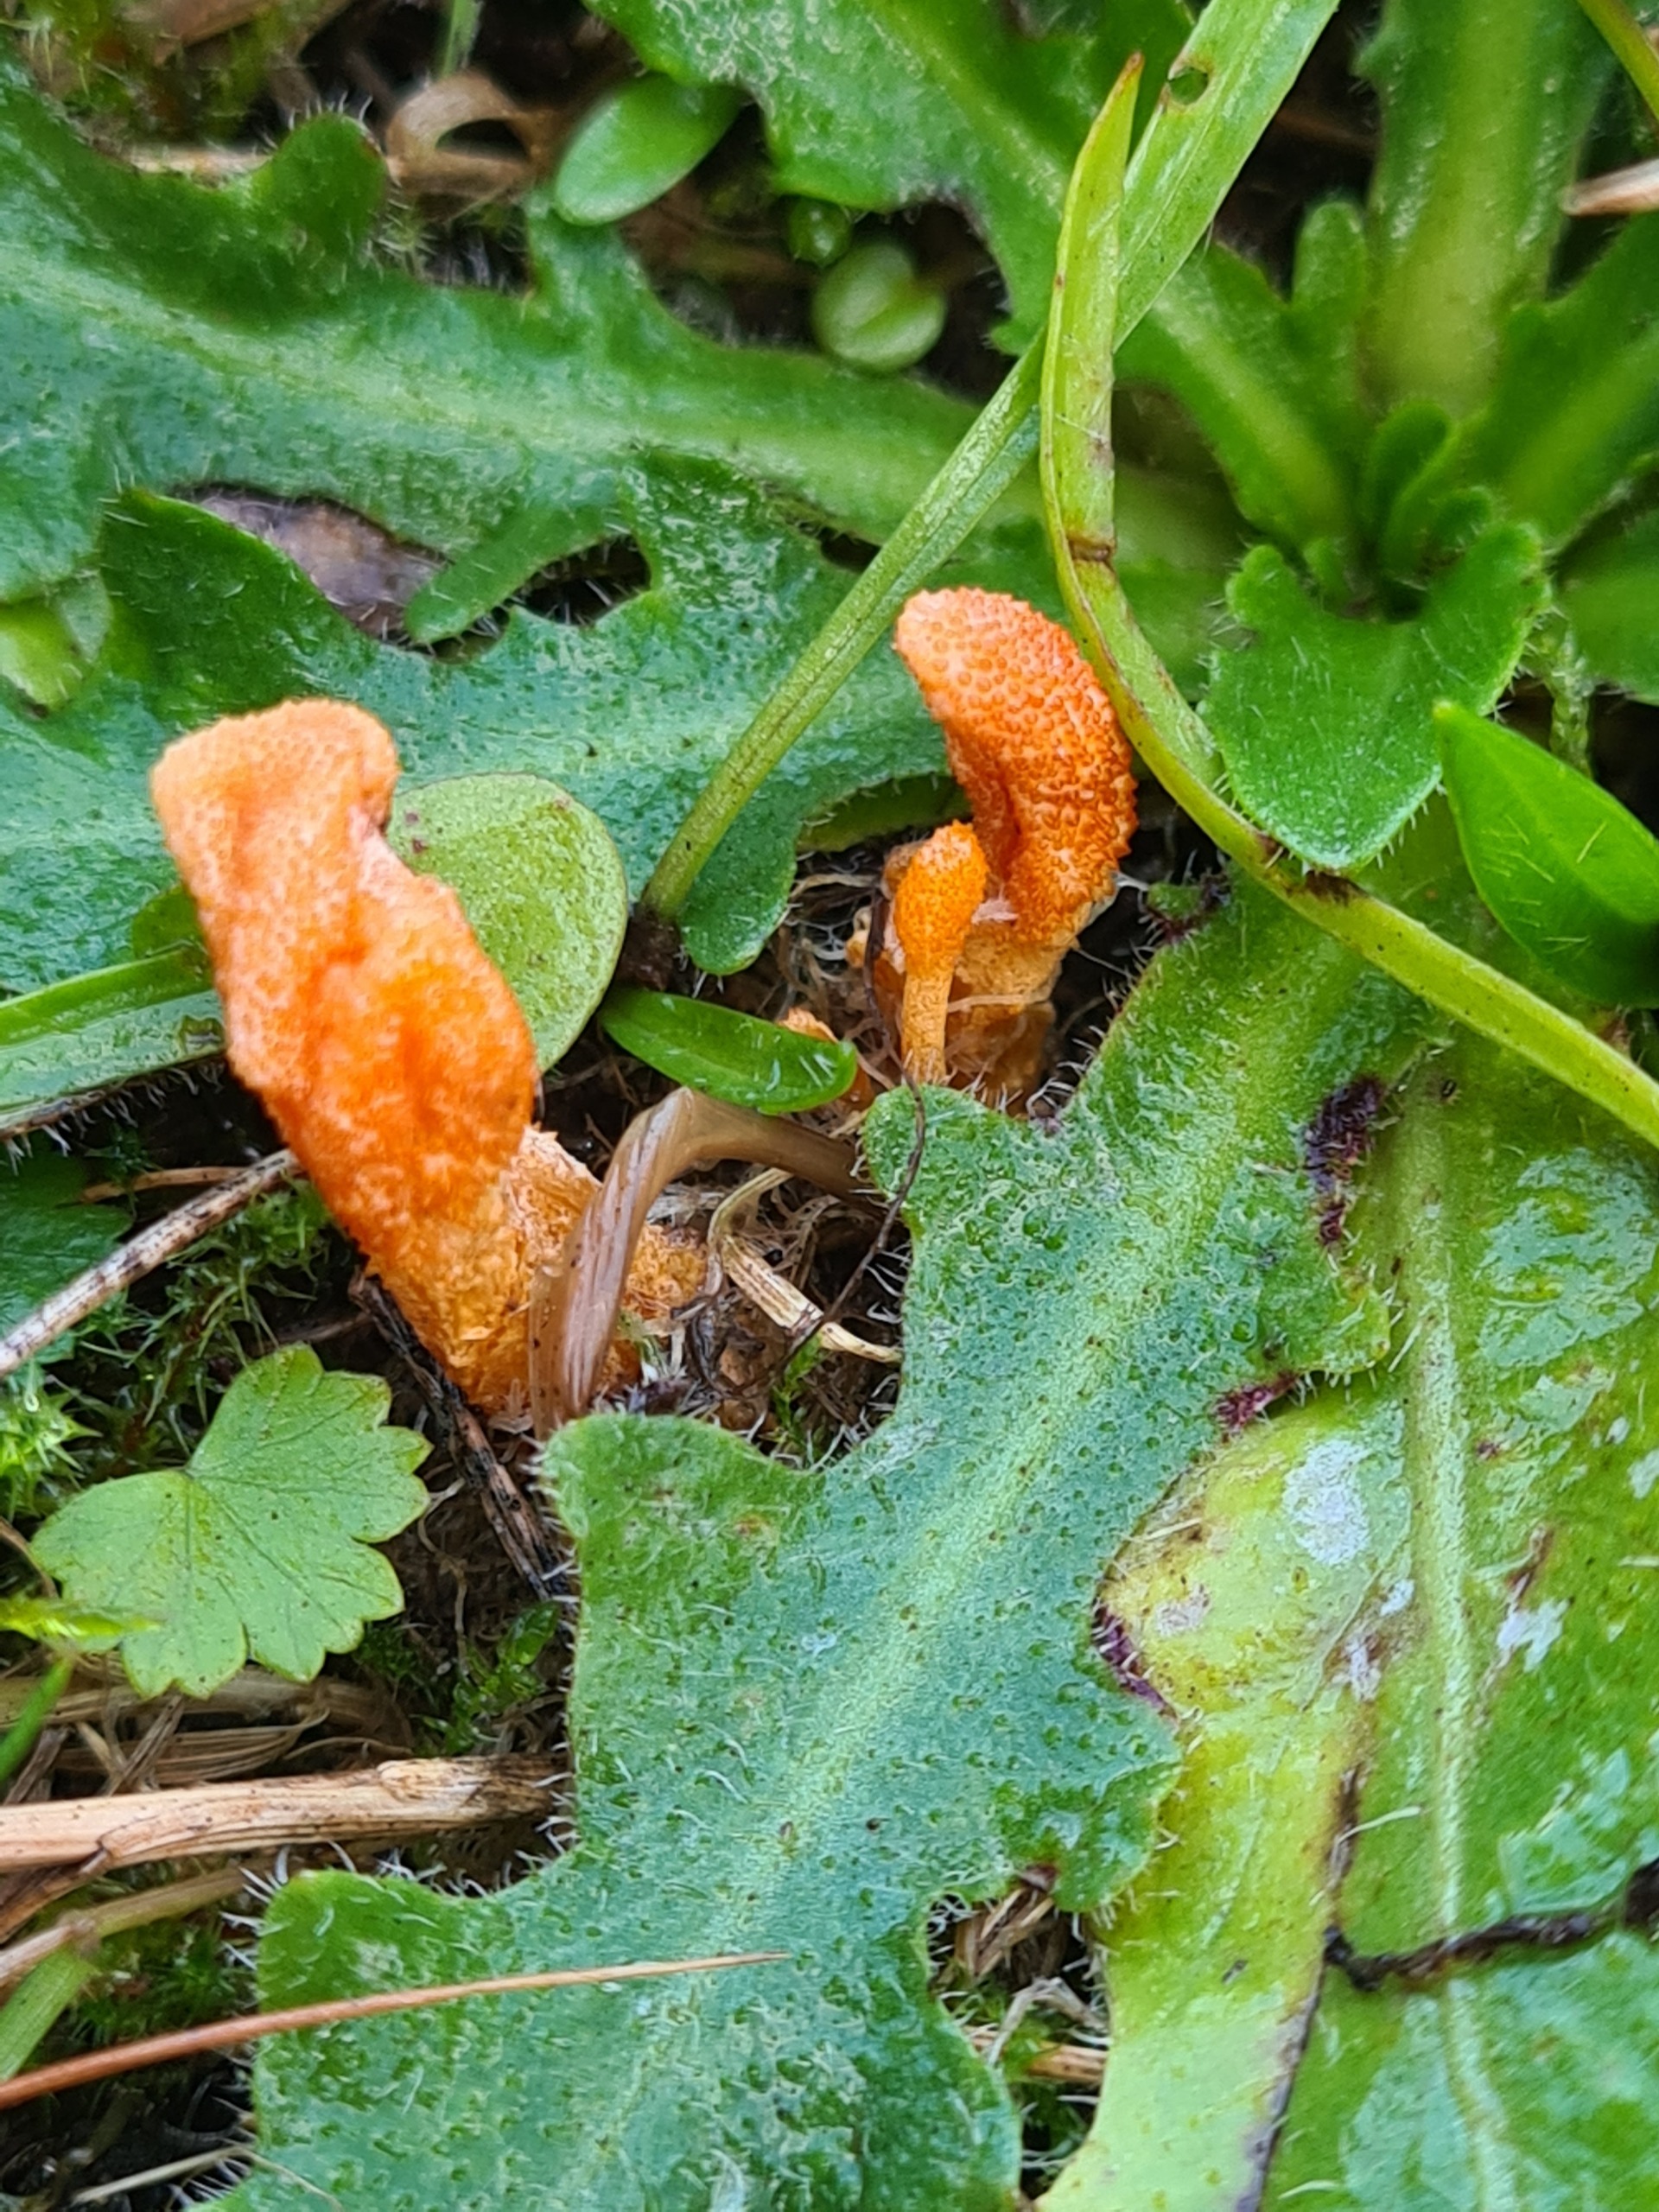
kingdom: Fungi
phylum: Ascomycota
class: Sordariomycetes
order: Hypocreales
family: Cordycipitaceae
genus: Cordyceps
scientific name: Cordyceps militaris
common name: Puppe-snyltekølle
